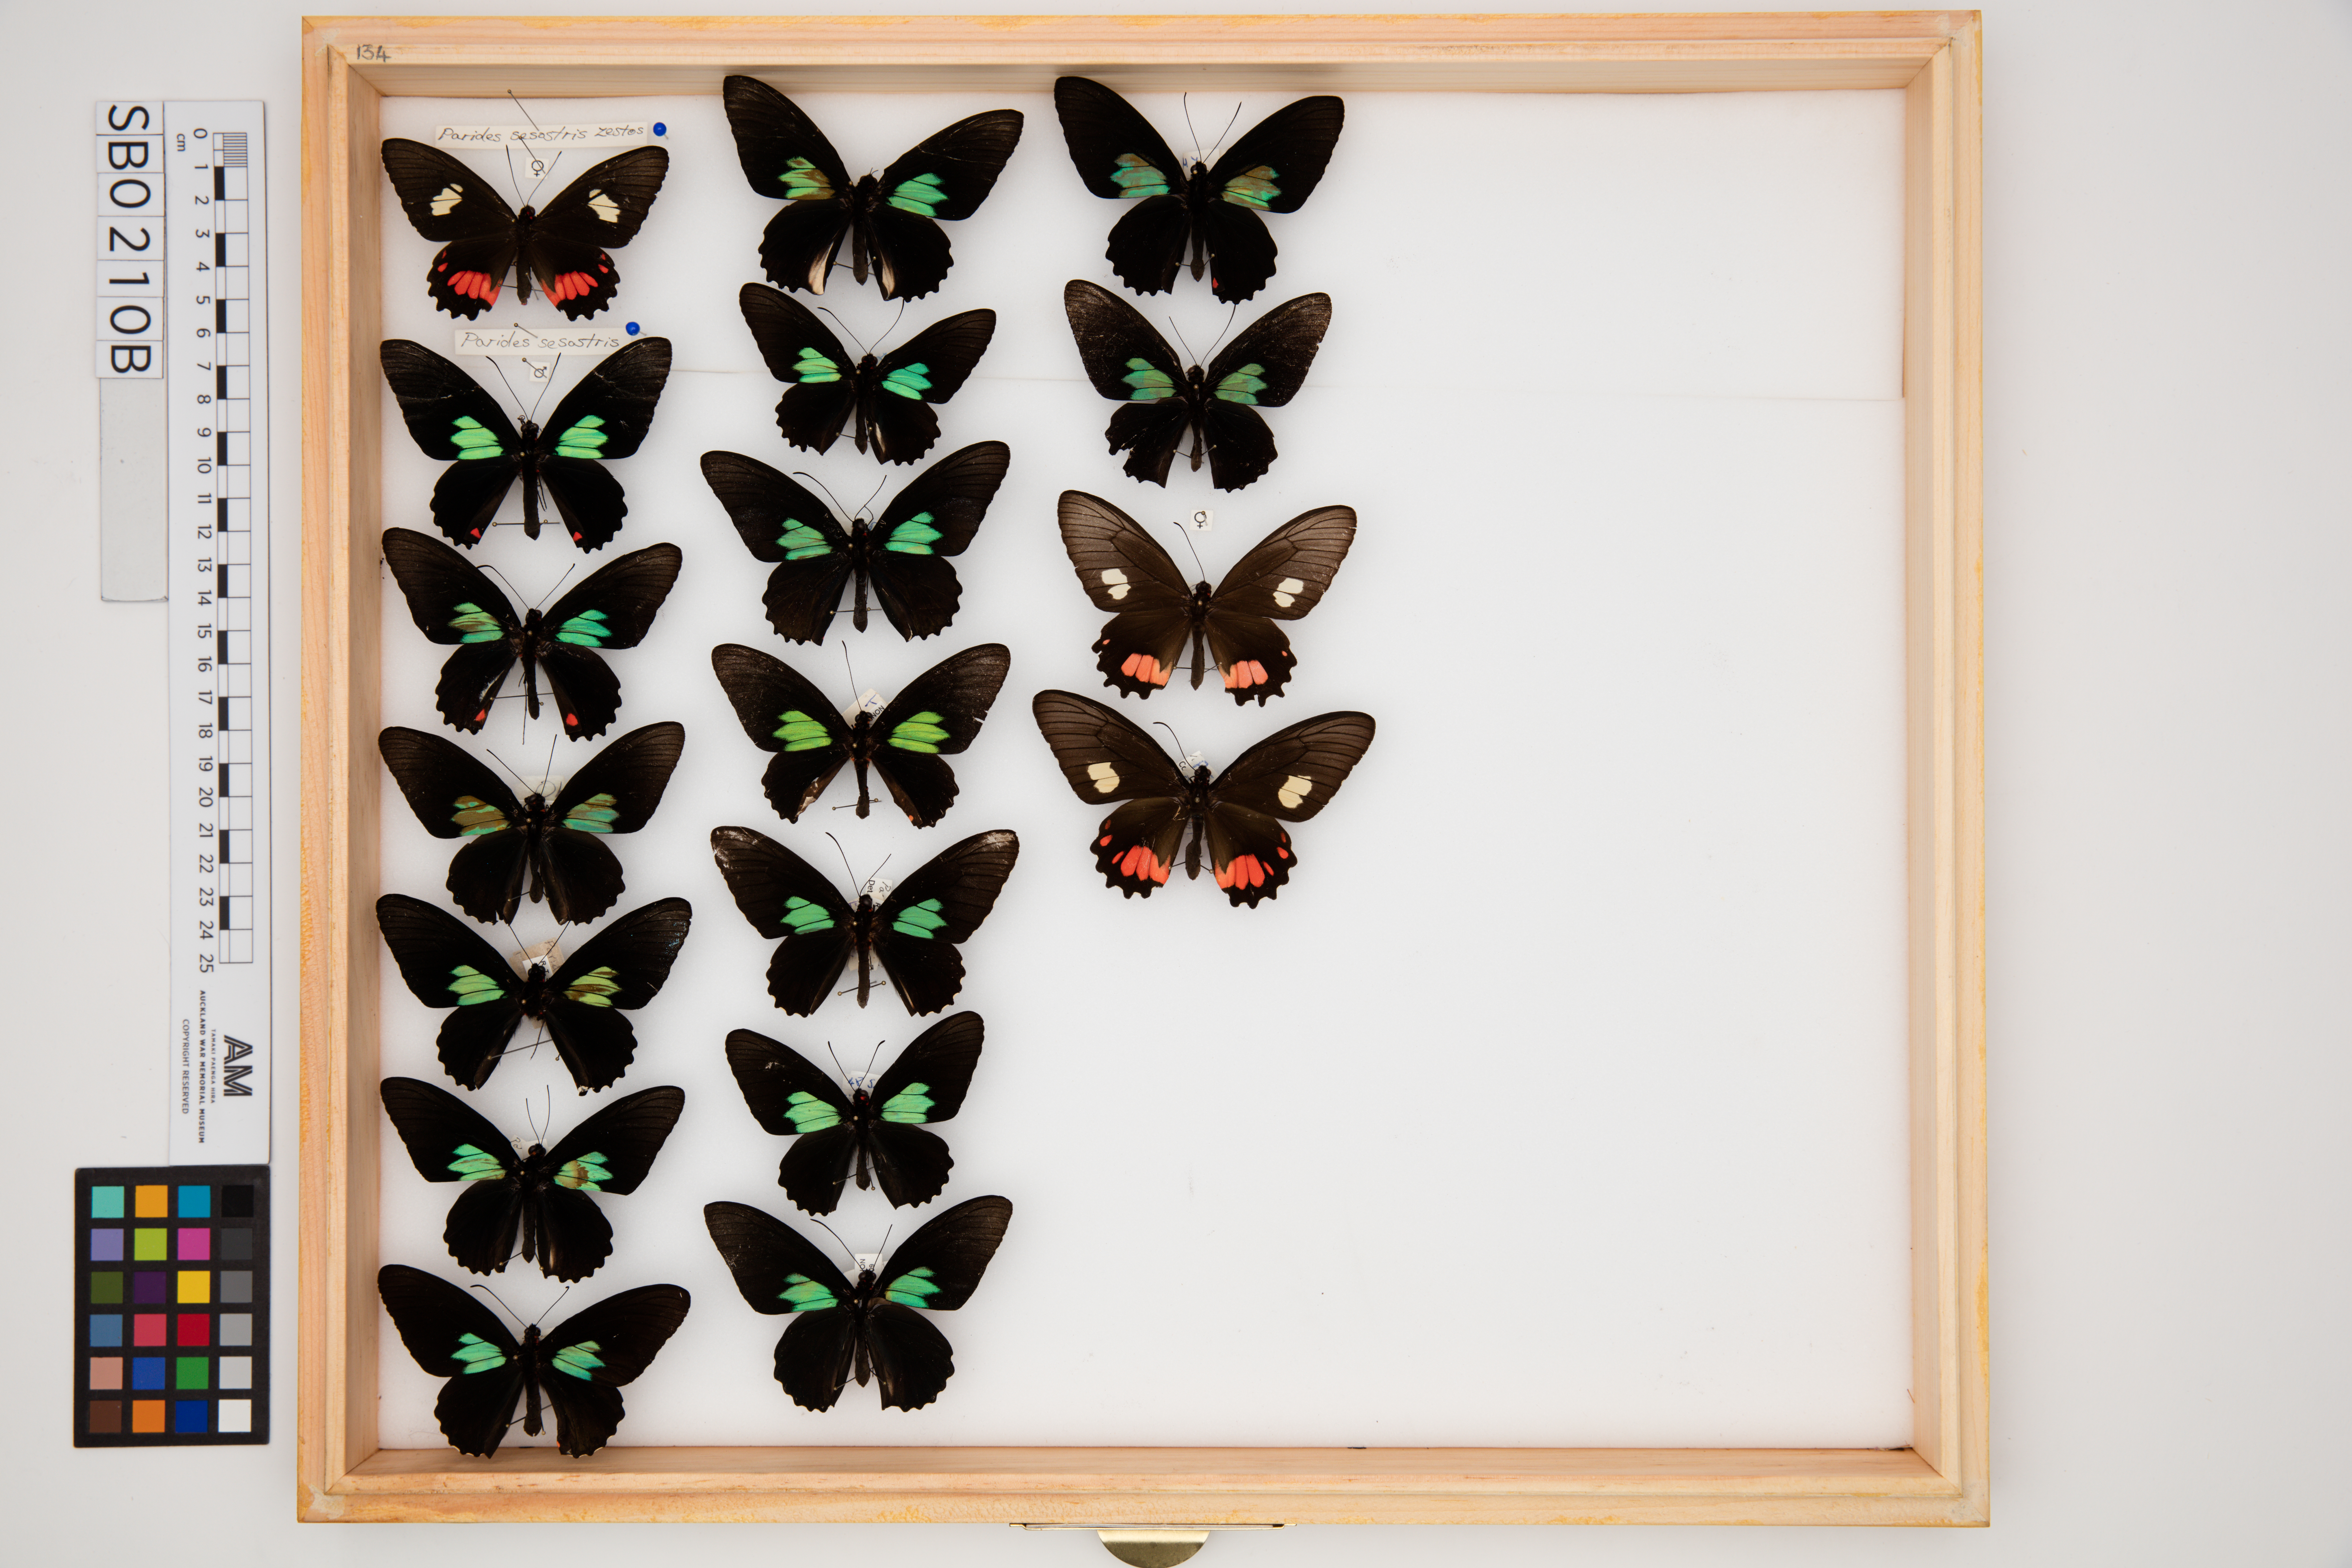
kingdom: Animalia
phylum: Arthropoda
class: Insecta
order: Lepidoptera
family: Papilionidae
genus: Parides
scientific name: Parides sesostris
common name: Southern cattle heart
